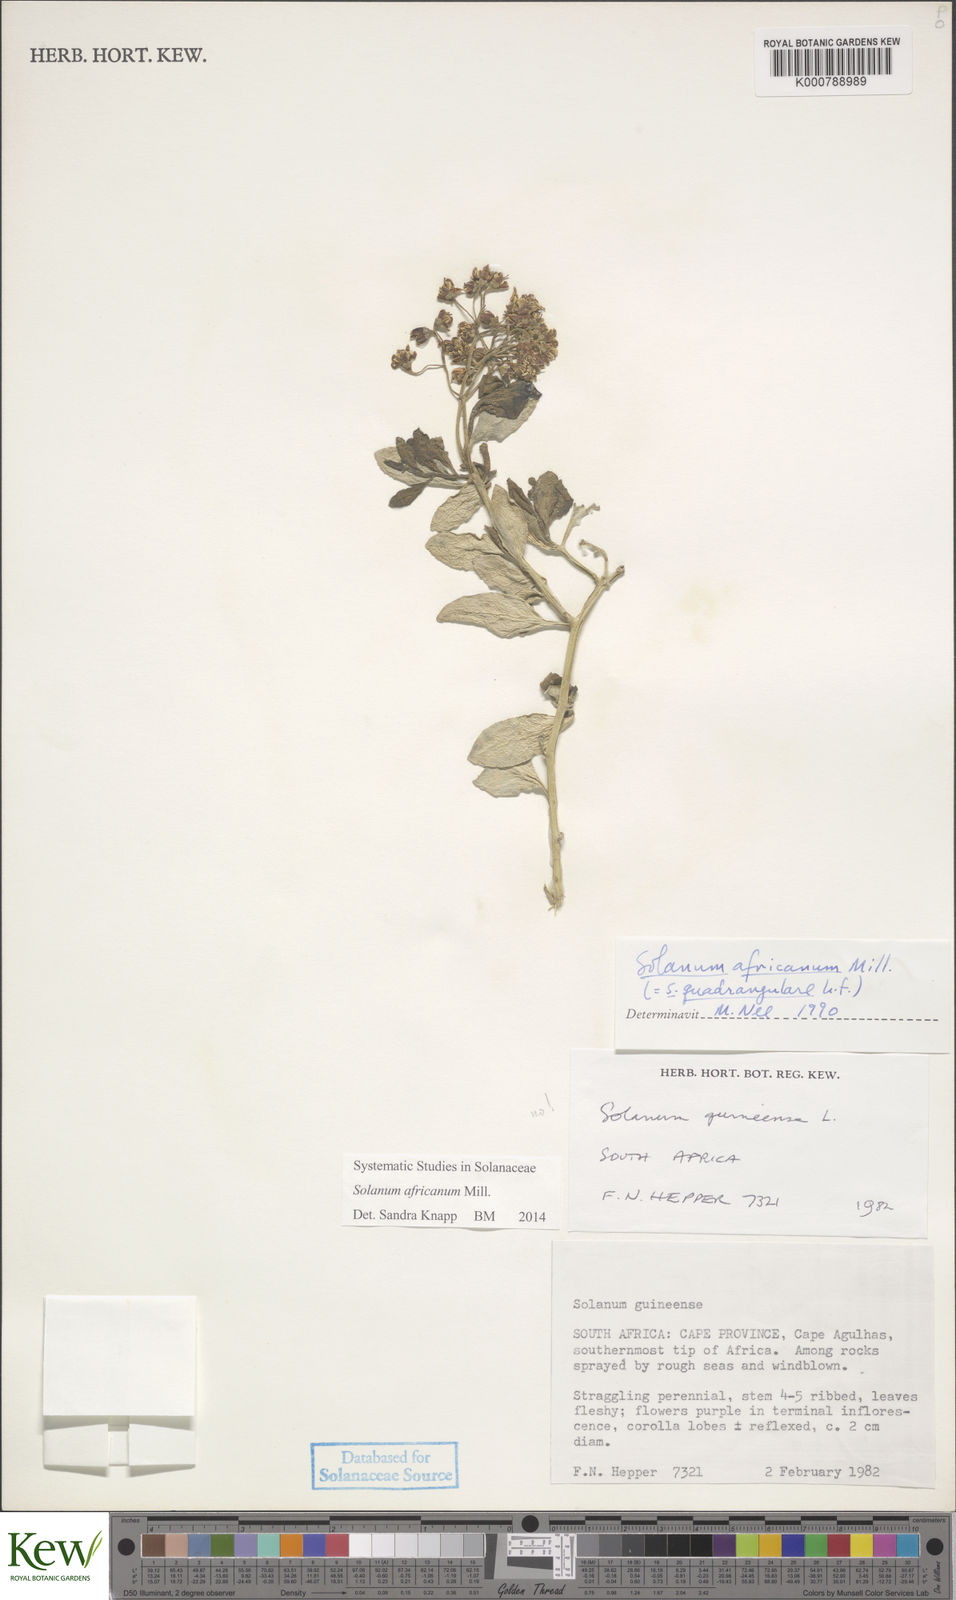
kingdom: Plantae
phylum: Tracheophyta
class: Magnoliopsida
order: Solanales
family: Solanaceae
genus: Solanum
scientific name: Solanum africanum
